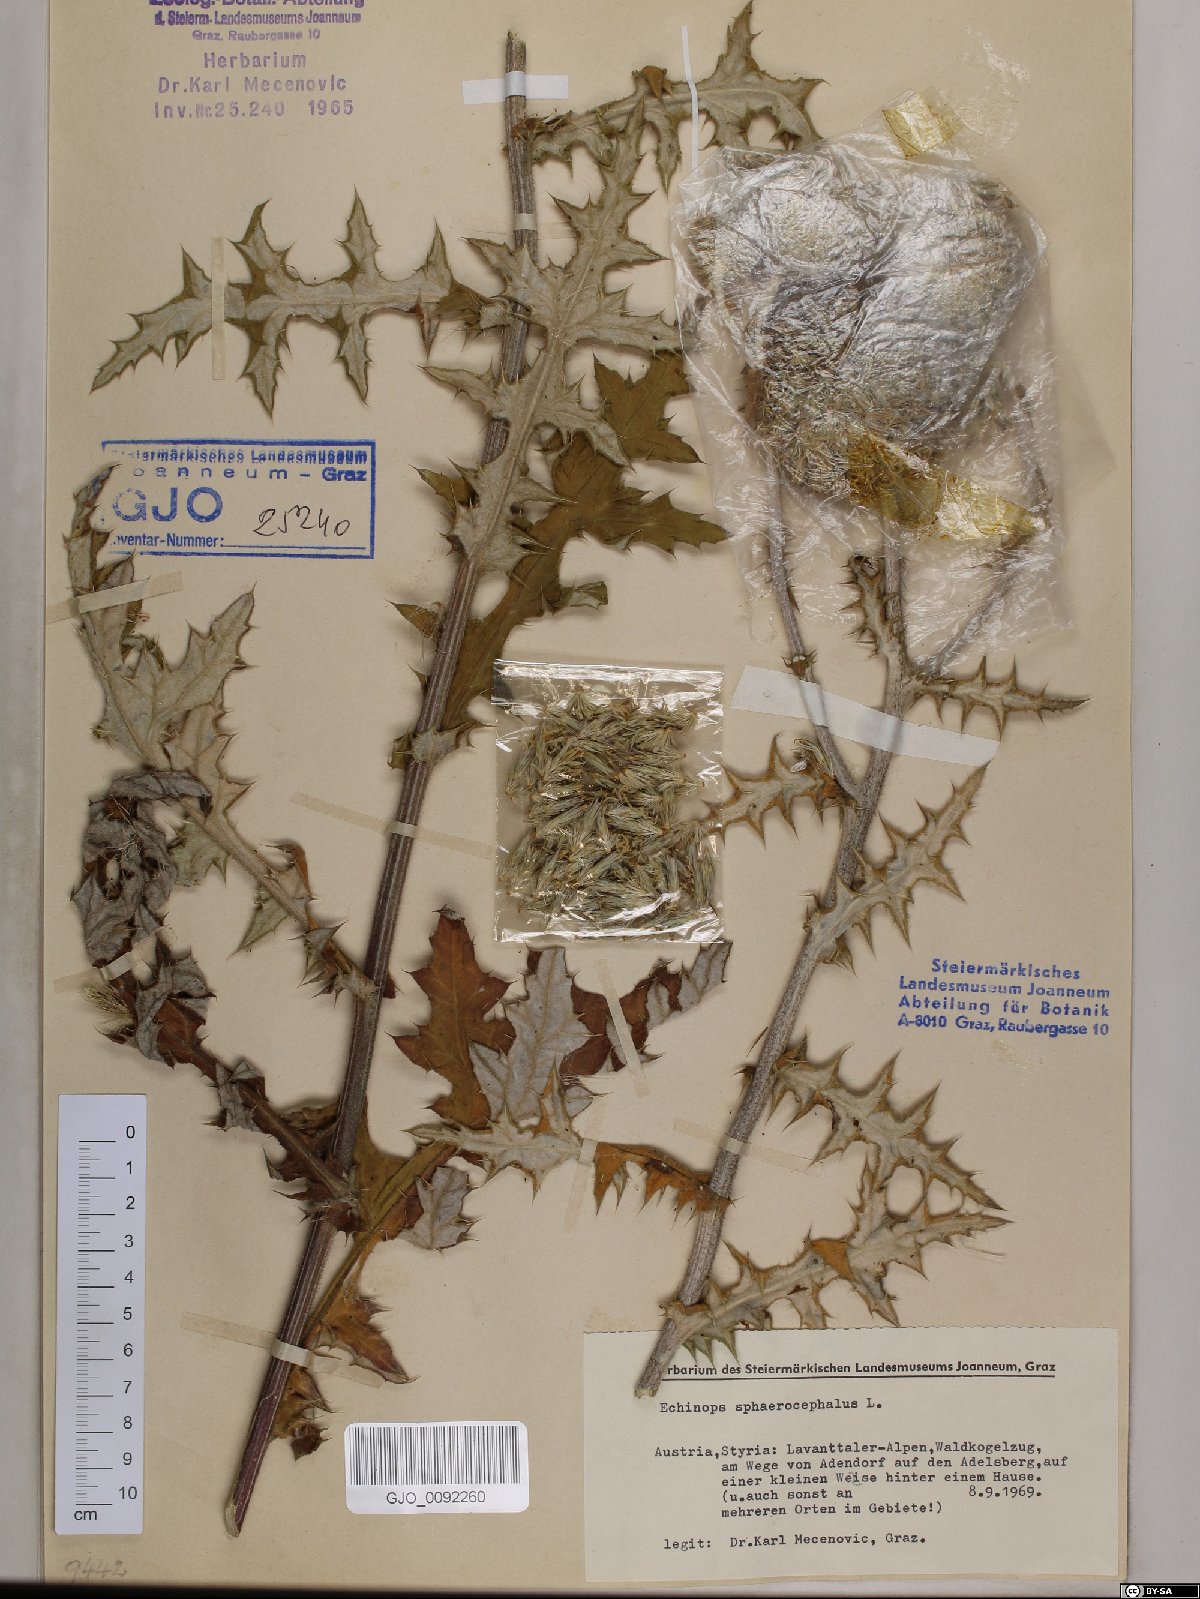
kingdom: Plantae
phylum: Tracheophyta
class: Magnoliopsida
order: Asterales
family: Asteraceae
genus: Echinops
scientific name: Echinops sphaerocephalus
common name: Glandular globe-thistle
